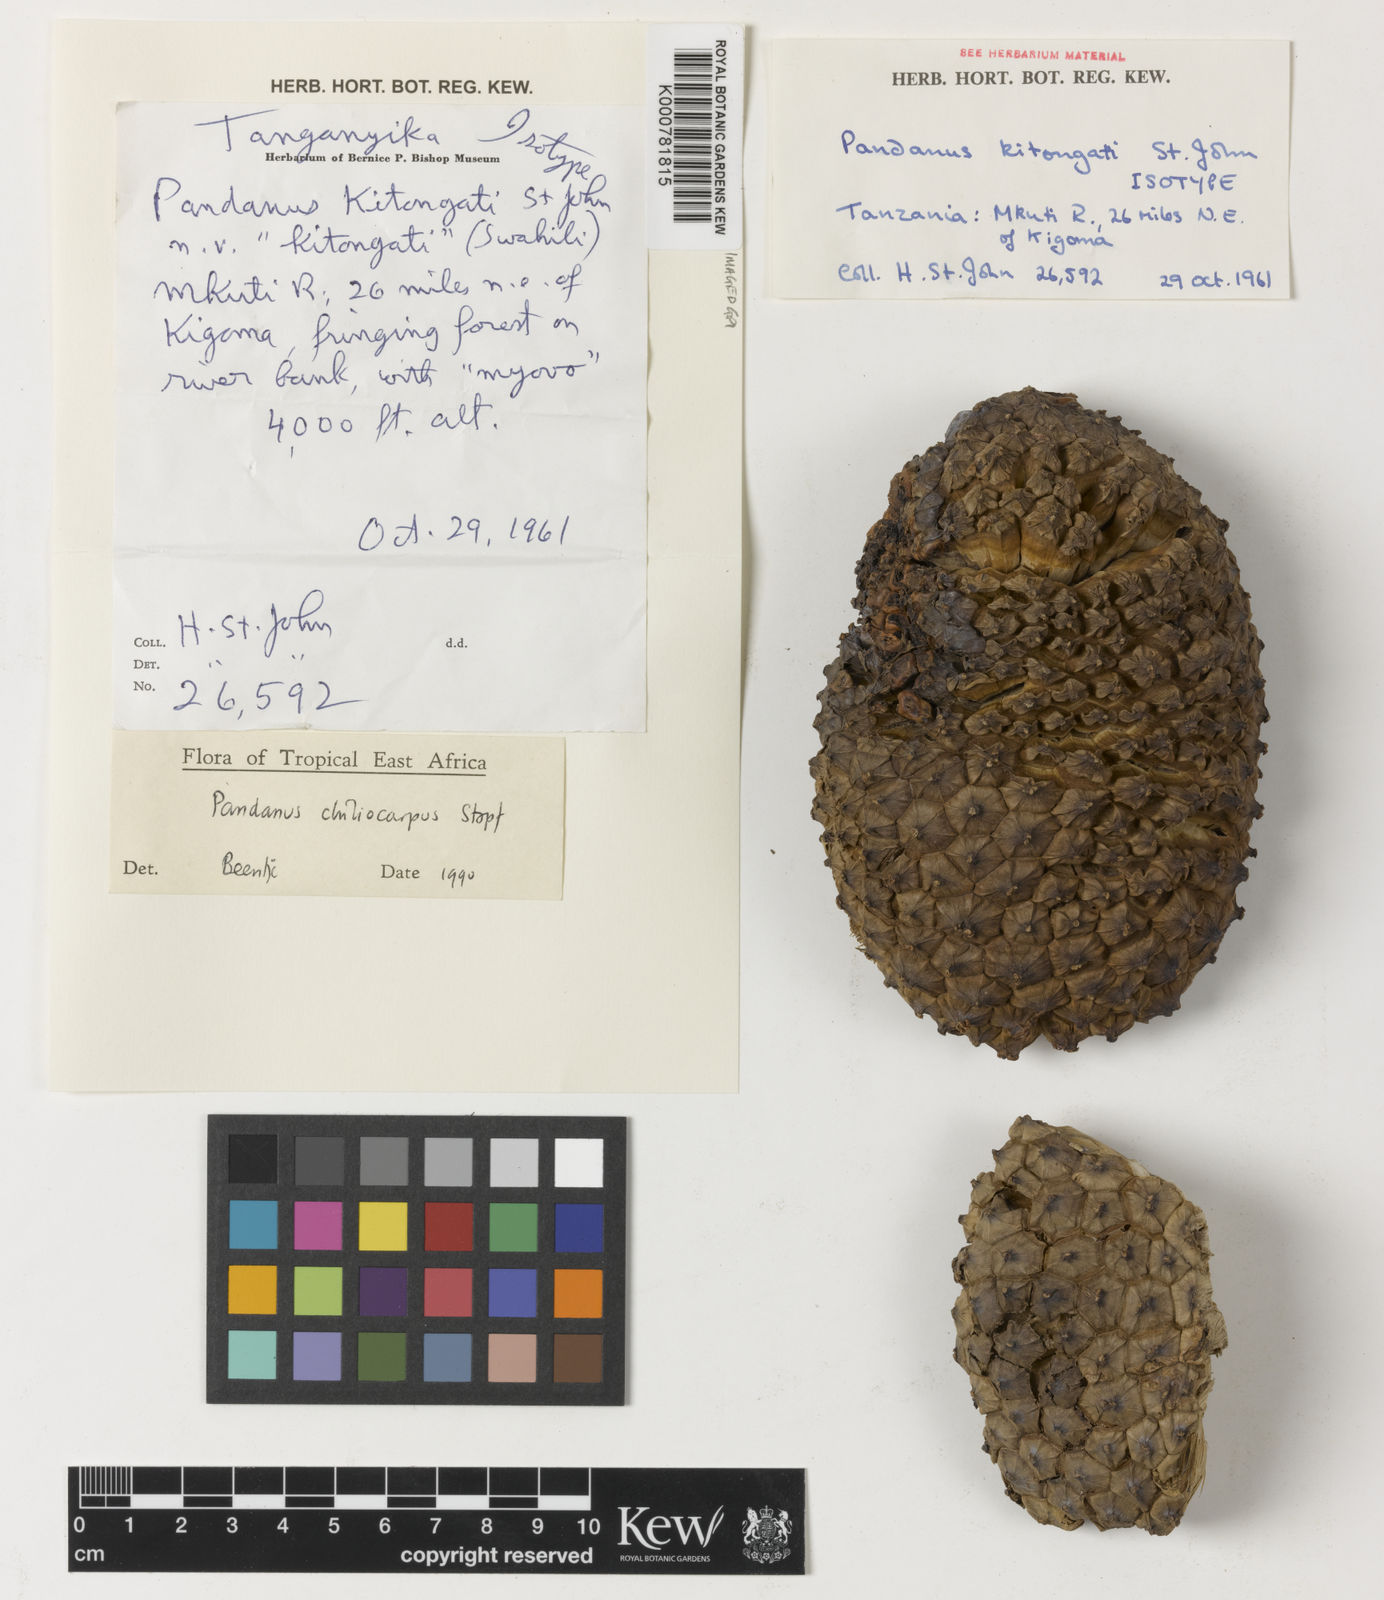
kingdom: Plantae
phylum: Tracheophyta
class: Liliopsida
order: Pandanales
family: Pandanaceae
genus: Pandanus
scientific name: Pandanus chiliocarpus
